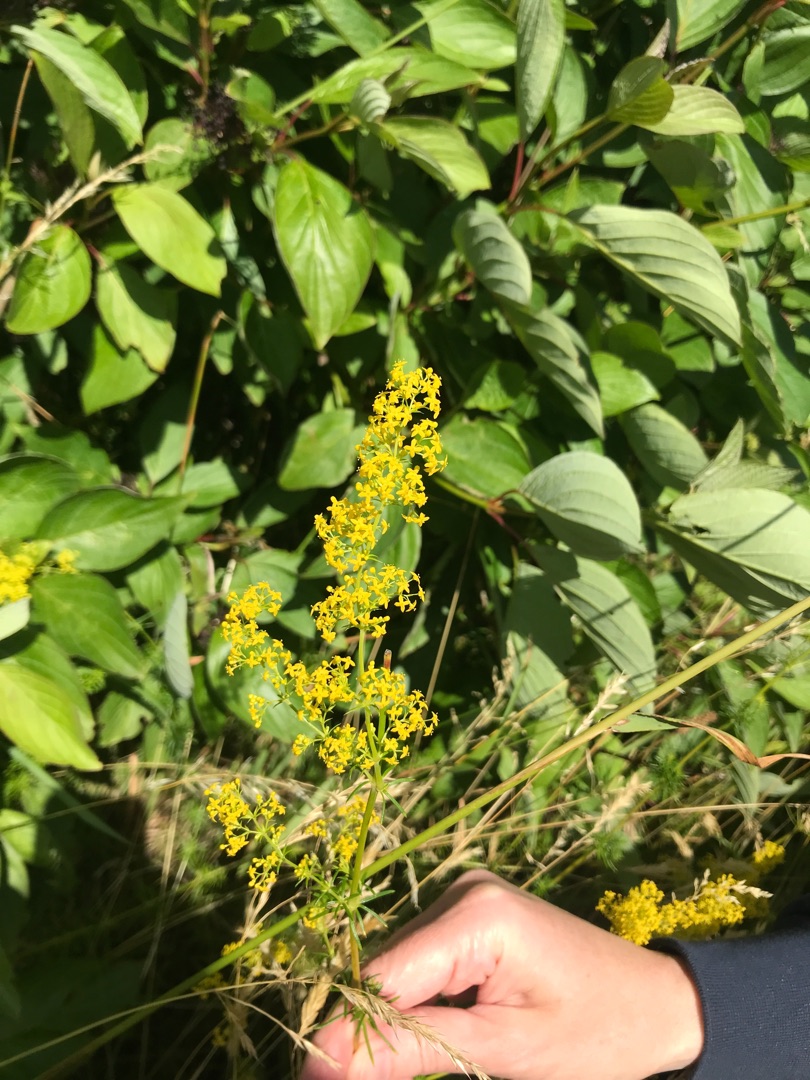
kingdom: Plantae
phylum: Tracheophyta
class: Magnoliopsida
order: Gentianales
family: Rubiaceae
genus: Galium
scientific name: Galium verum
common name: Gul snerre
